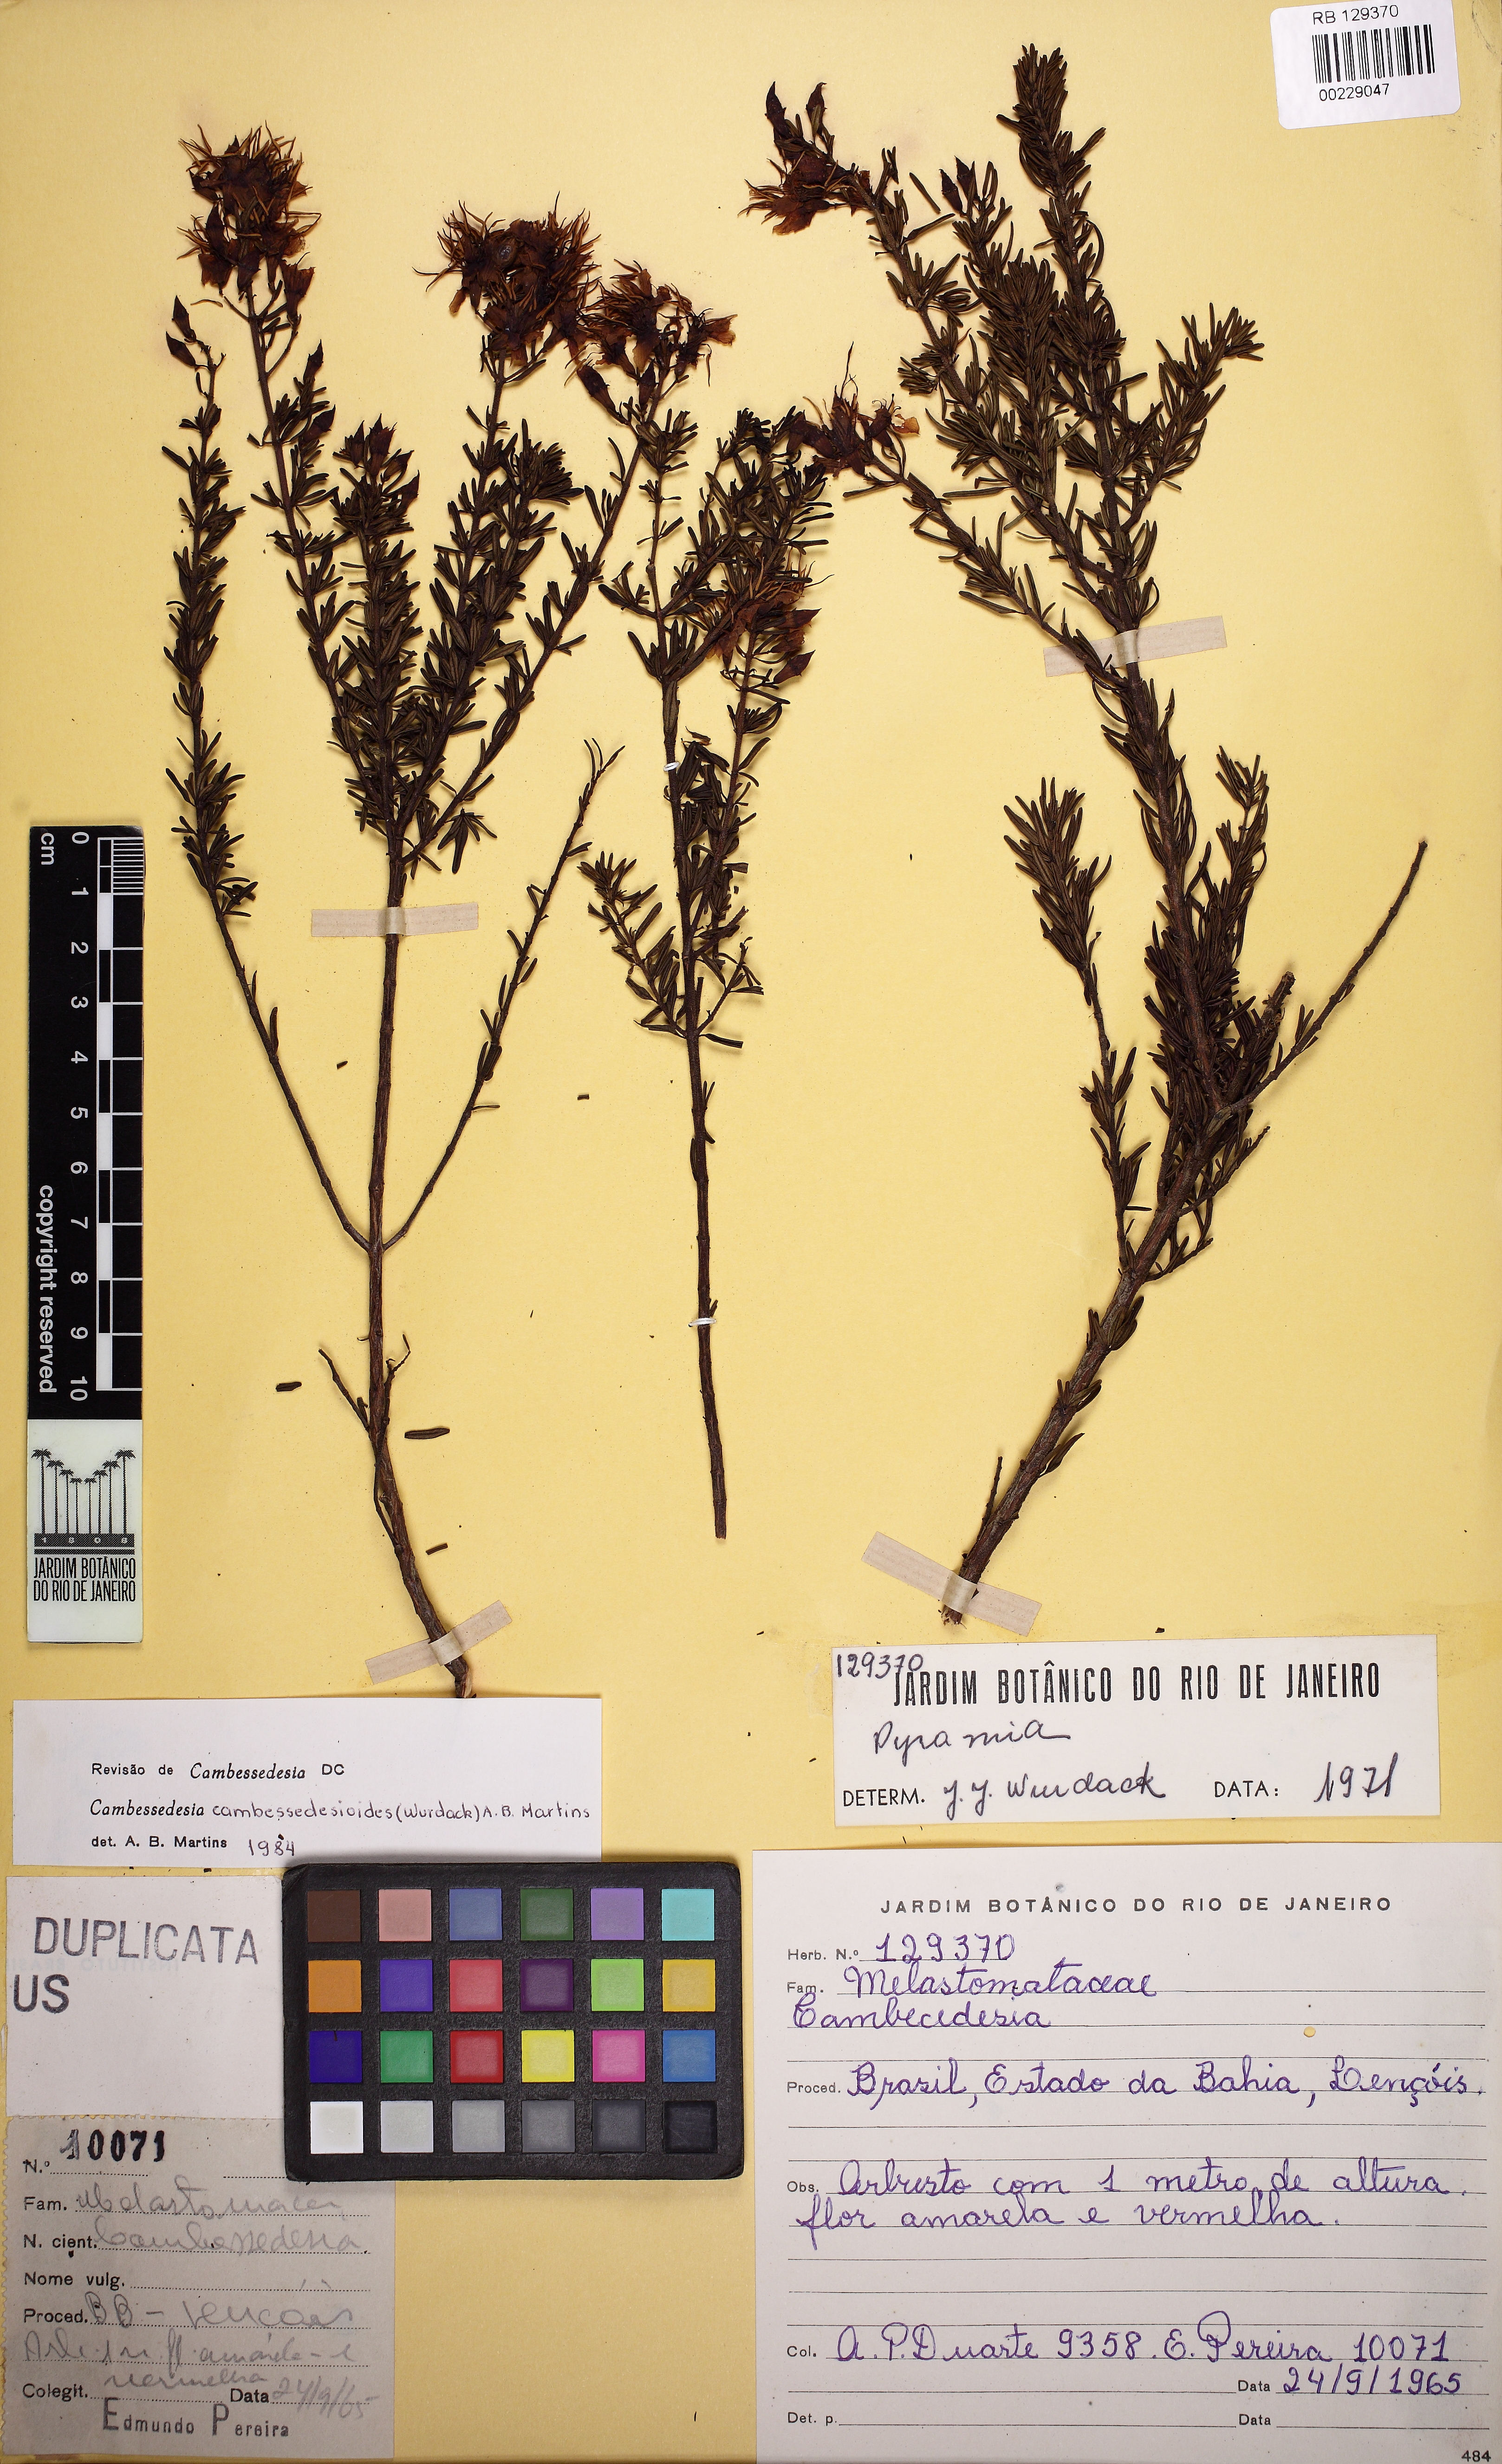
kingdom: Plantae
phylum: Tracheophyta
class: Magnoliopsida
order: Myrtales
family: Melastomataceae
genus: Cambessedesia
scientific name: Cambessedesia cambessedesioides
